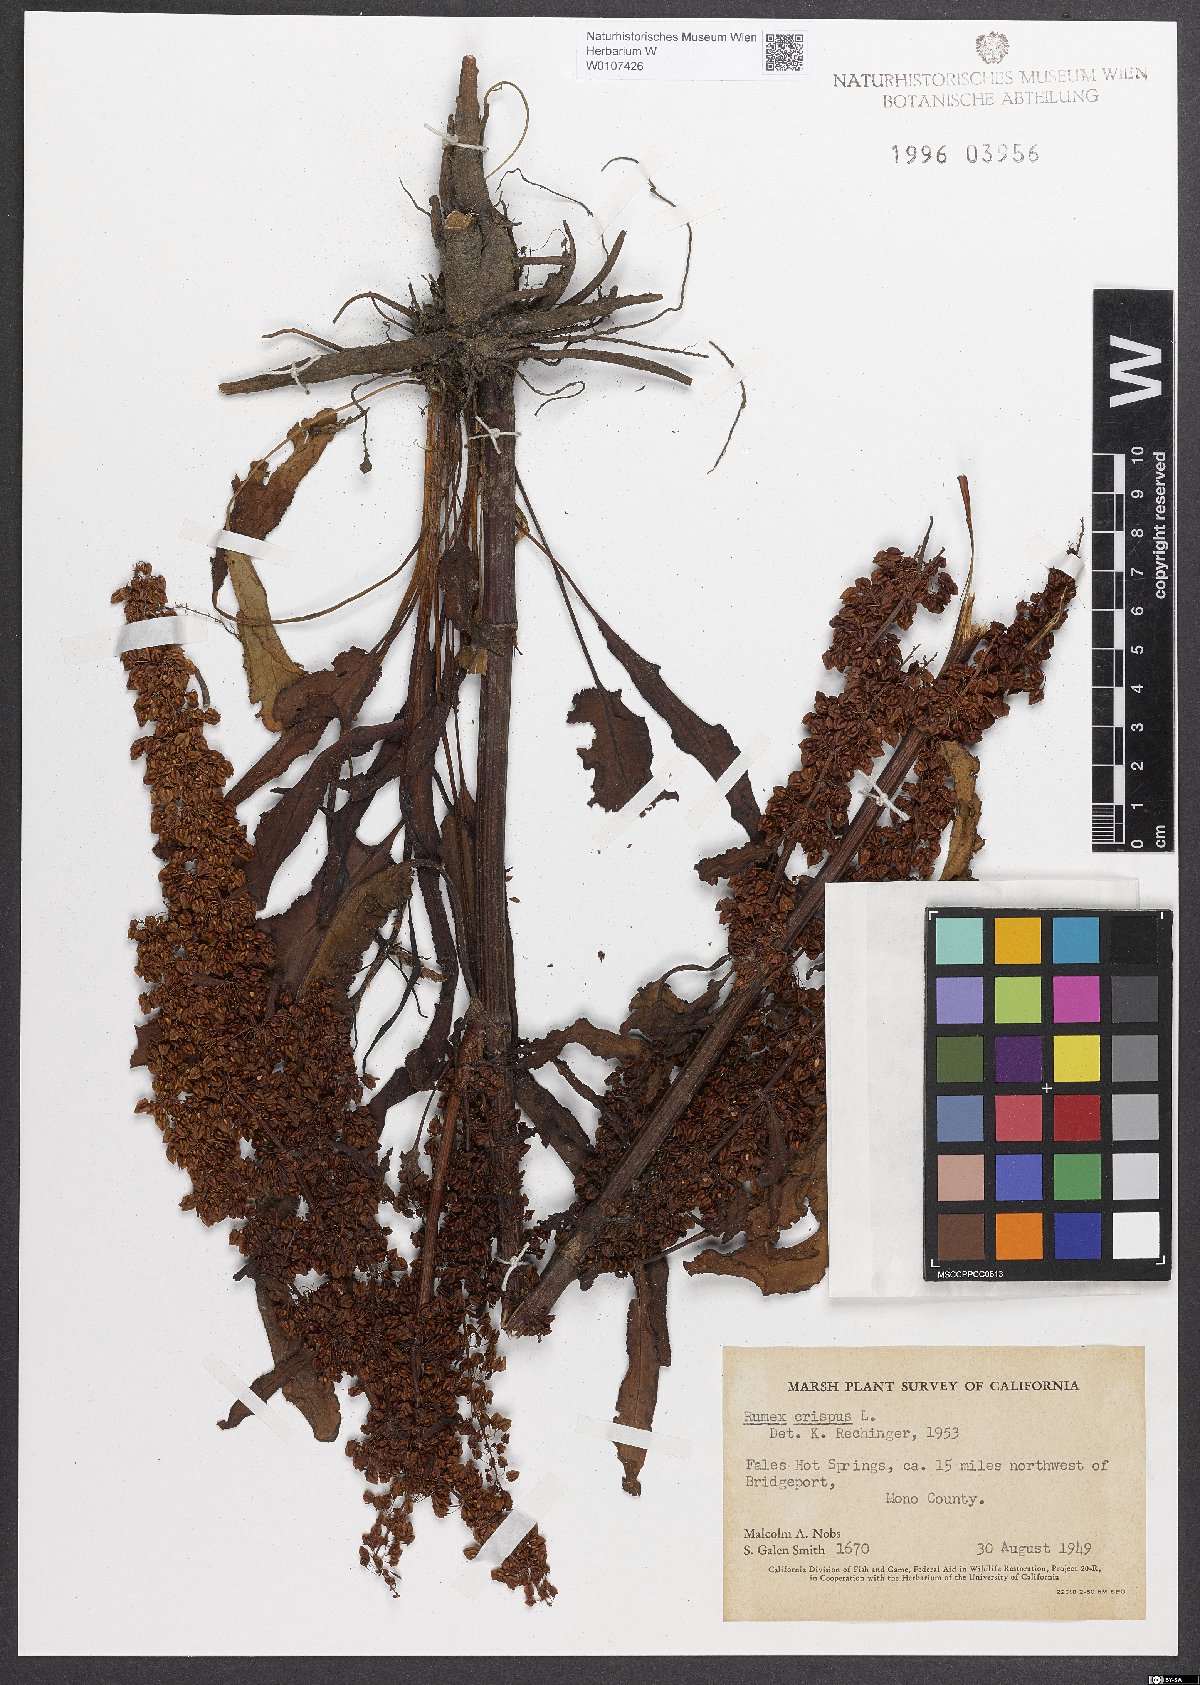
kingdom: Plantae
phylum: Tracheophyta
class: Magnoliopsida
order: Caryophyllales
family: Polygonaceae
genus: Rumex
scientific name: Rumex crispus
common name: Curled dock
